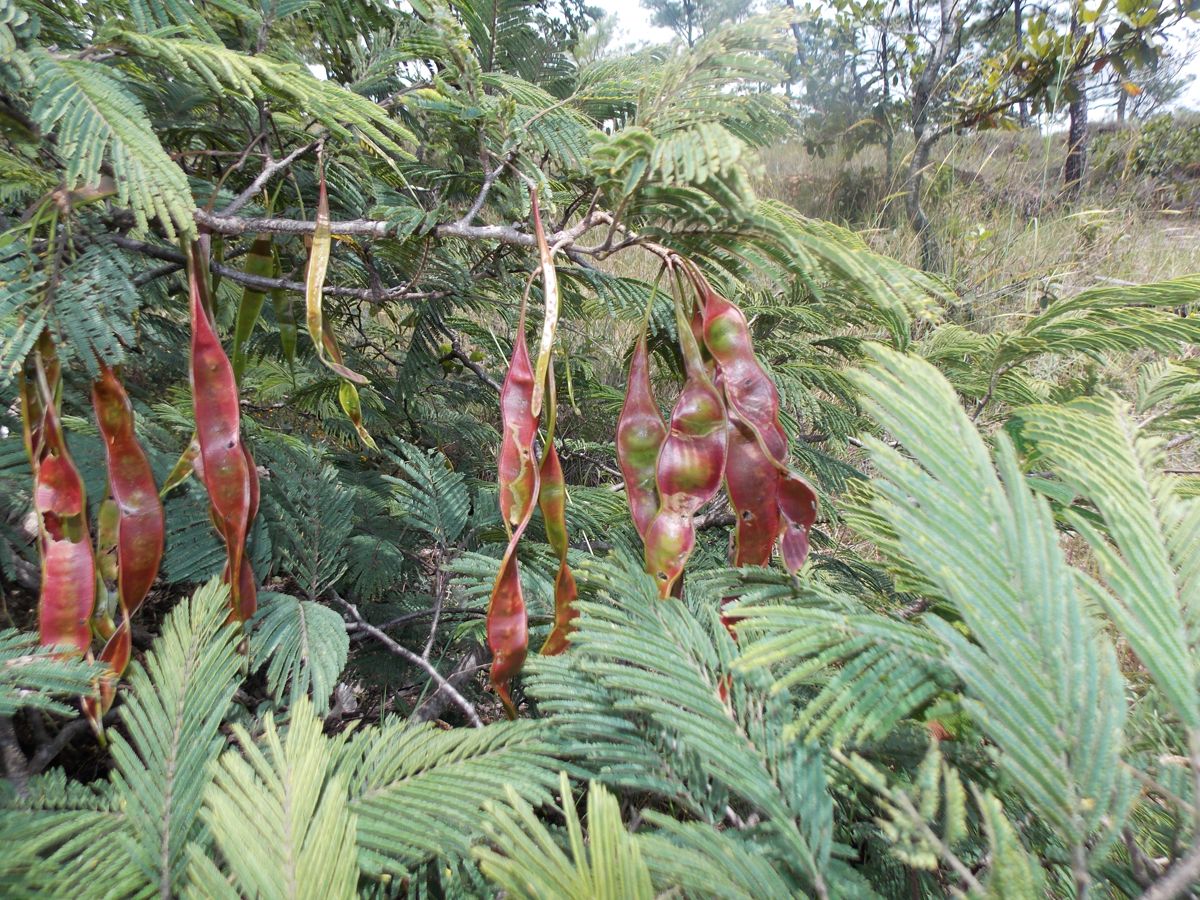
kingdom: Plantae
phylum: Tracheophyta
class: Magnoliopsida
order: Fabales
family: Fabaceae
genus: Lysiloma
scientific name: Lysiloma auritum
